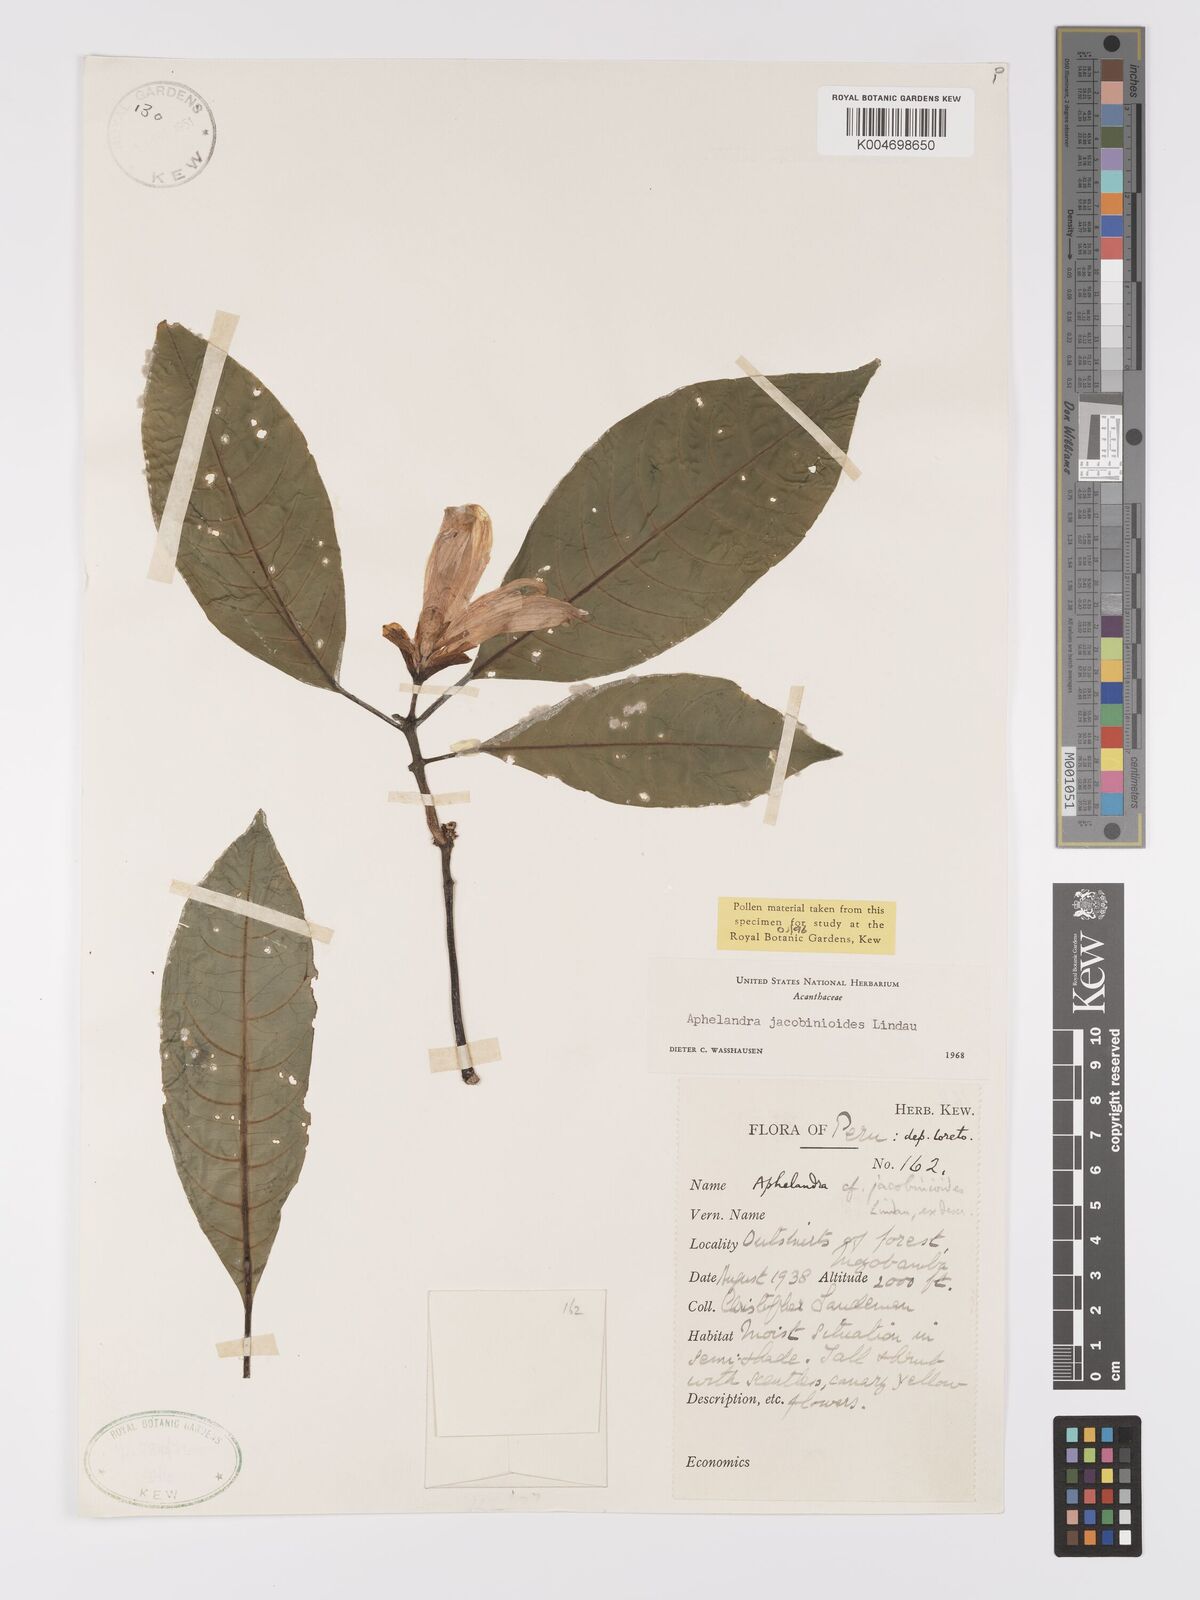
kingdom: Plantae
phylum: Tracheophyta
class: Magnoliopsida
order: Lamiales
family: Acanthaceae
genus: Aphelandra
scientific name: Aphelandra jacobinioides
